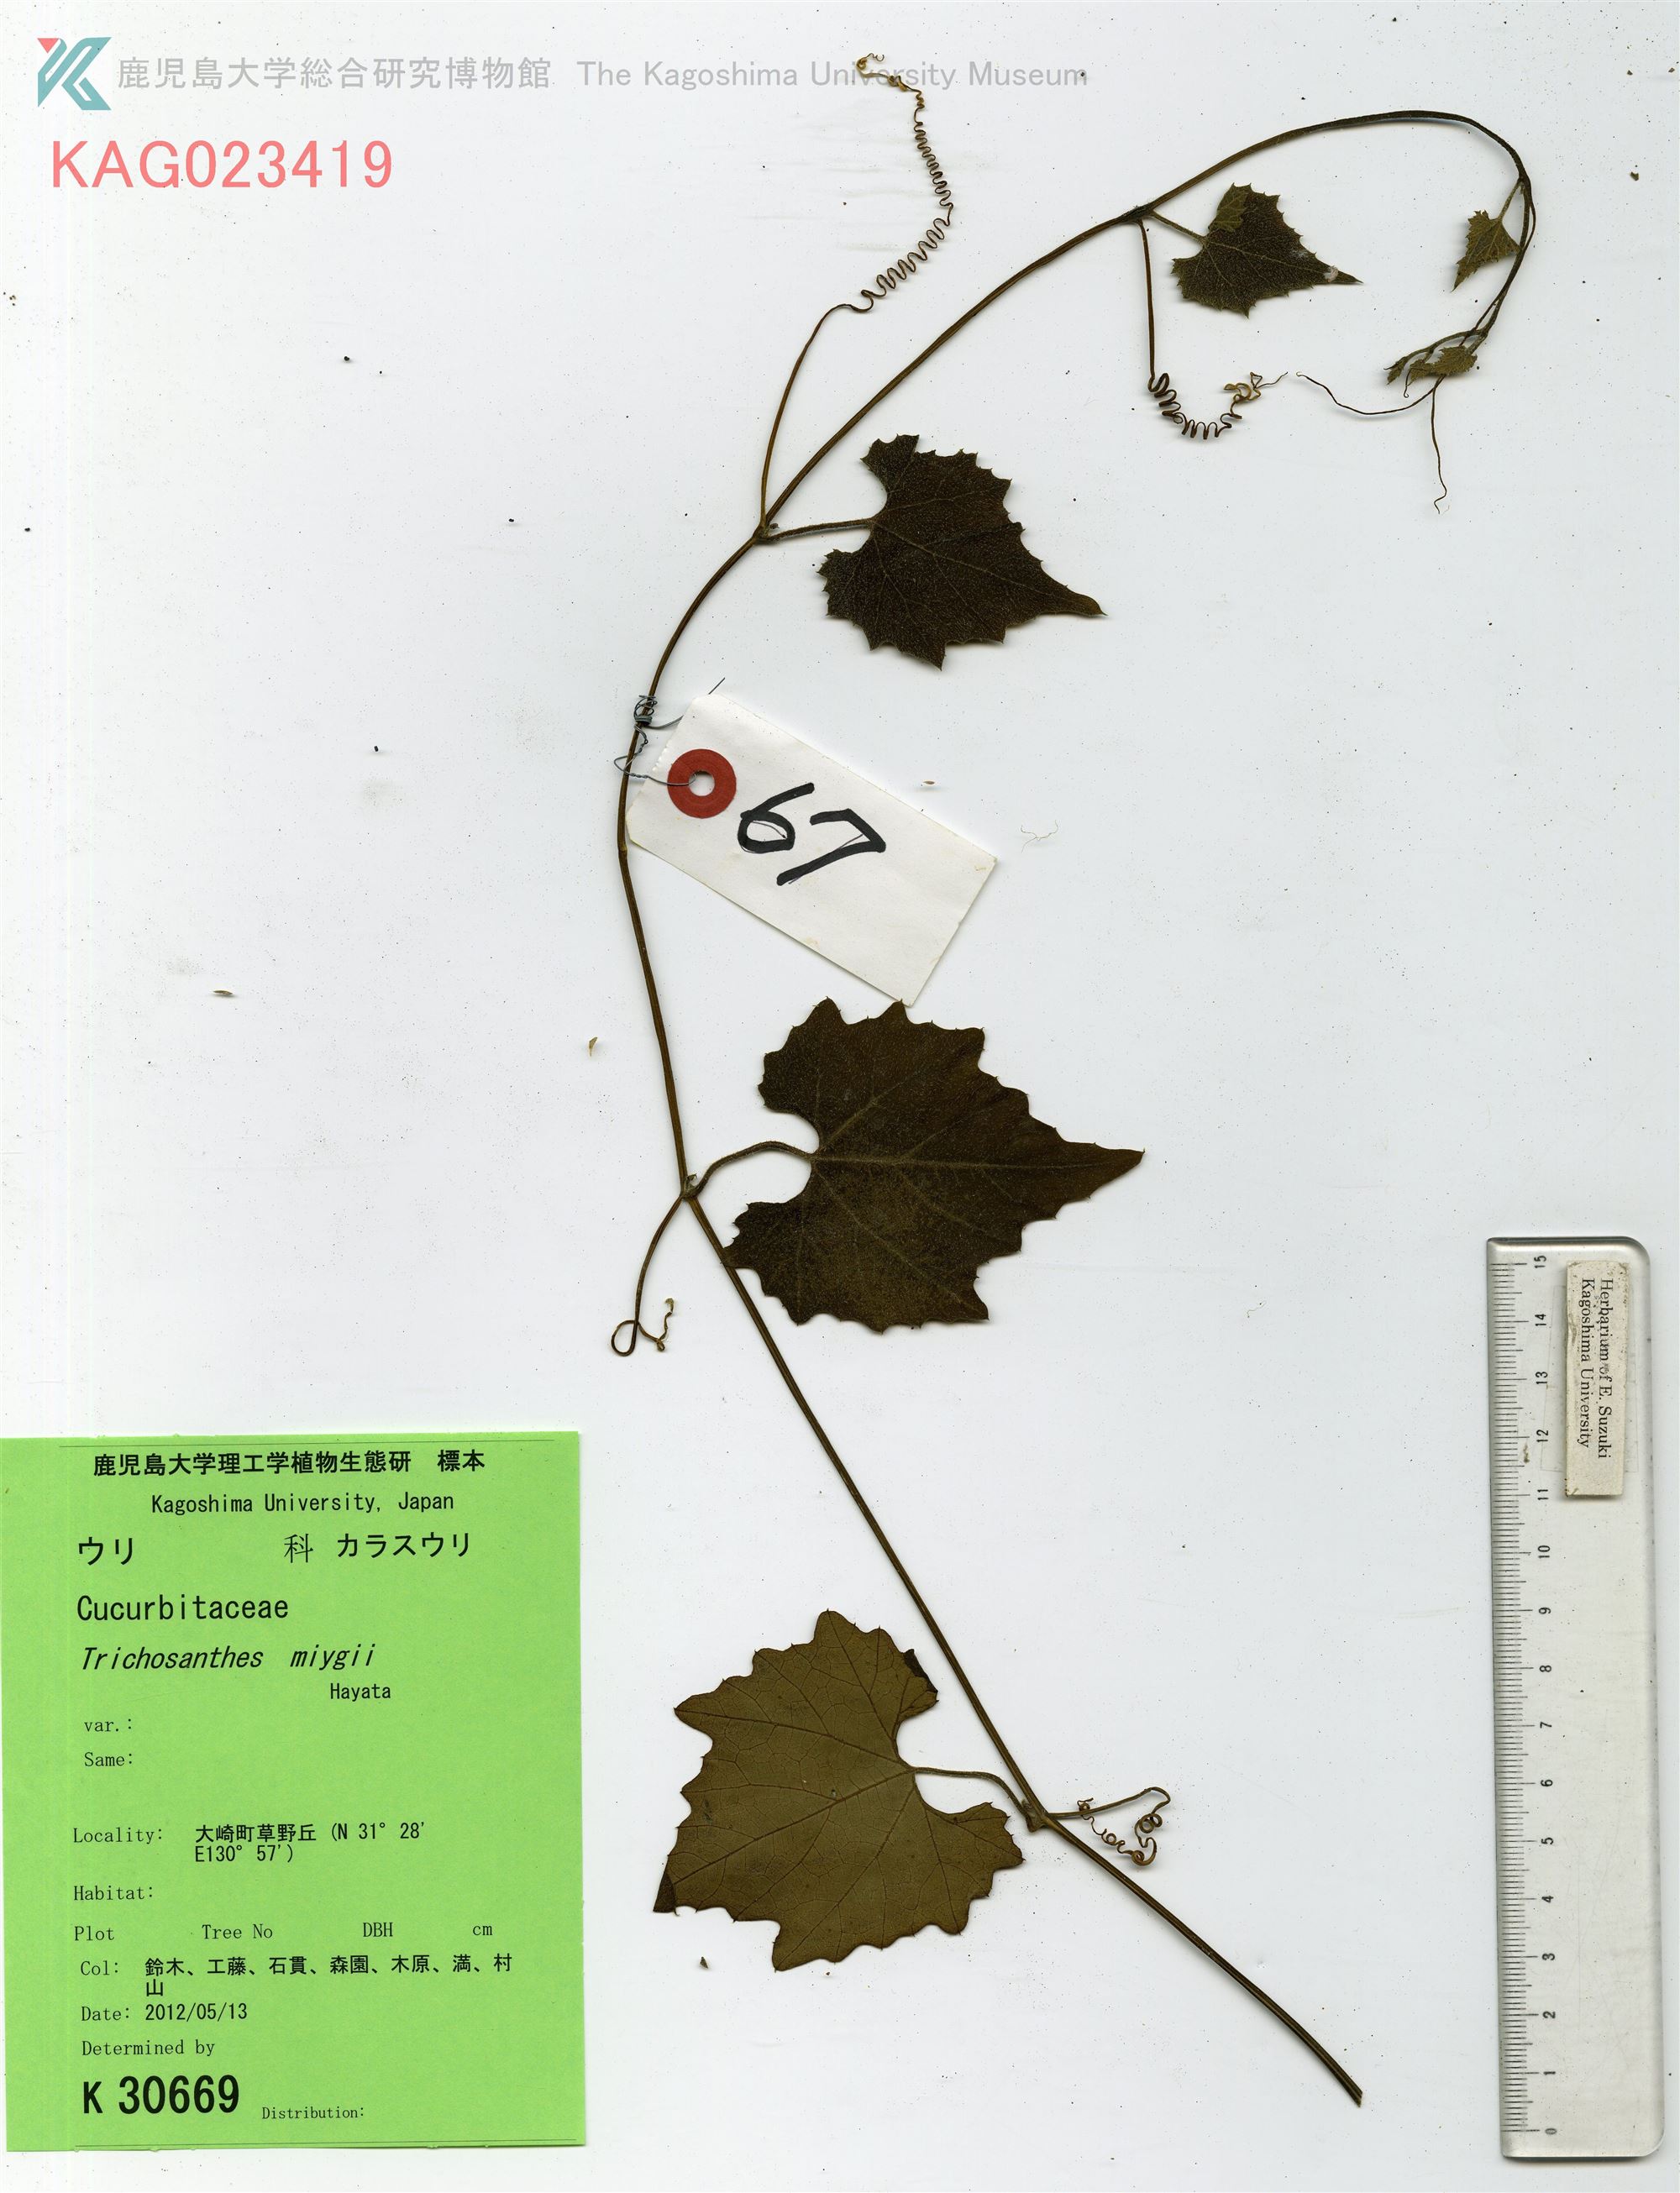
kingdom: Plantae
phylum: Tracheophyta
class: Magnoliopsida
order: Cucurbitales
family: Cucurbitaceae
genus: Trichosanthes
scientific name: Trichosanthes cucumeroides
